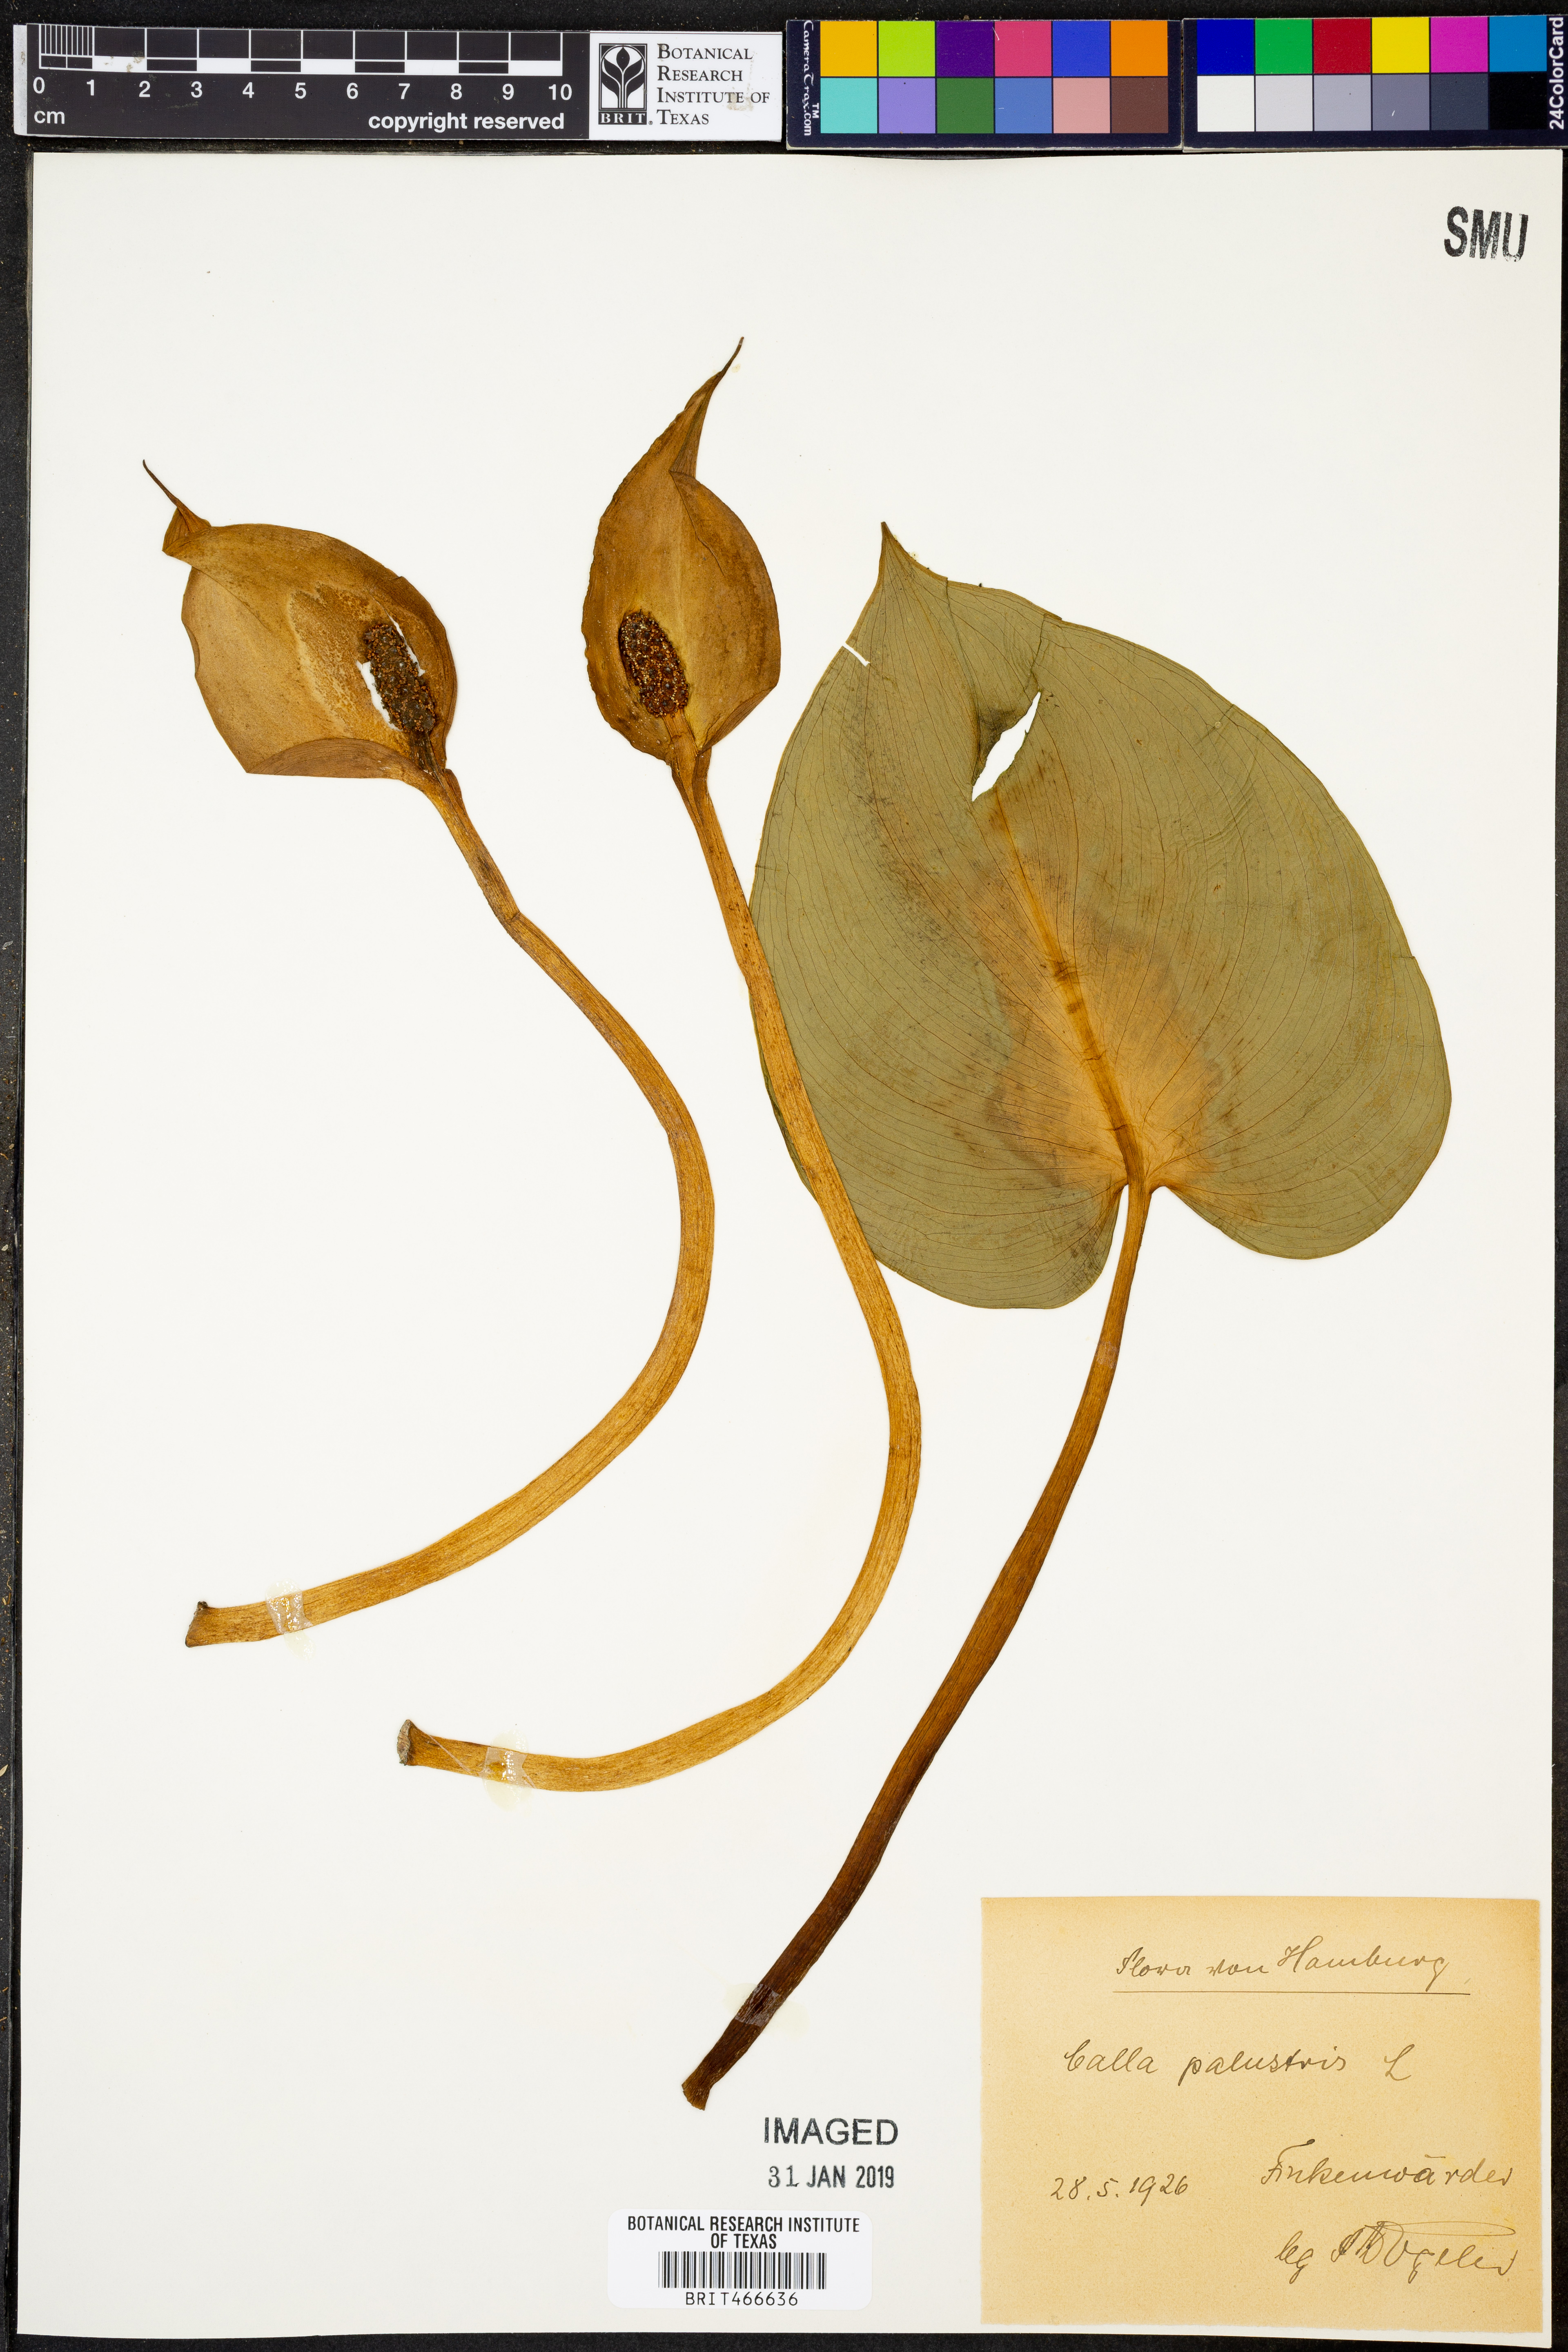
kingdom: Plantae
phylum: Tracheophyta
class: Liliopsida
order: Alismatales
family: Araceae
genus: Calla
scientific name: Calla palustris
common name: Bog arum
